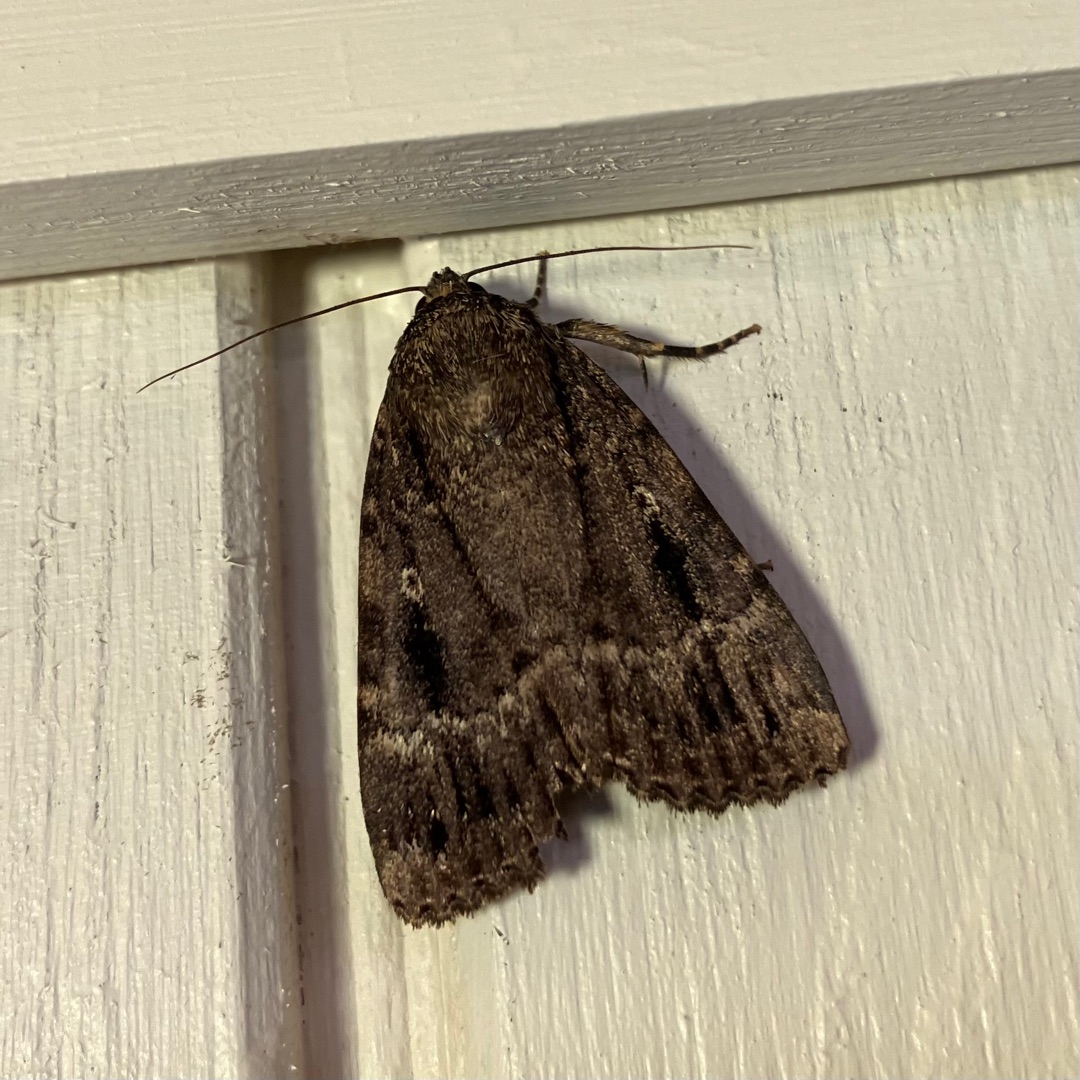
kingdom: Animalia
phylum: Arthropoda
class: Insecta
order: Lepidoptera
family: Noctuidae
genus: Amphipyra
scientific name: Amphipyra pyramidea
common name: Pyramideugle
